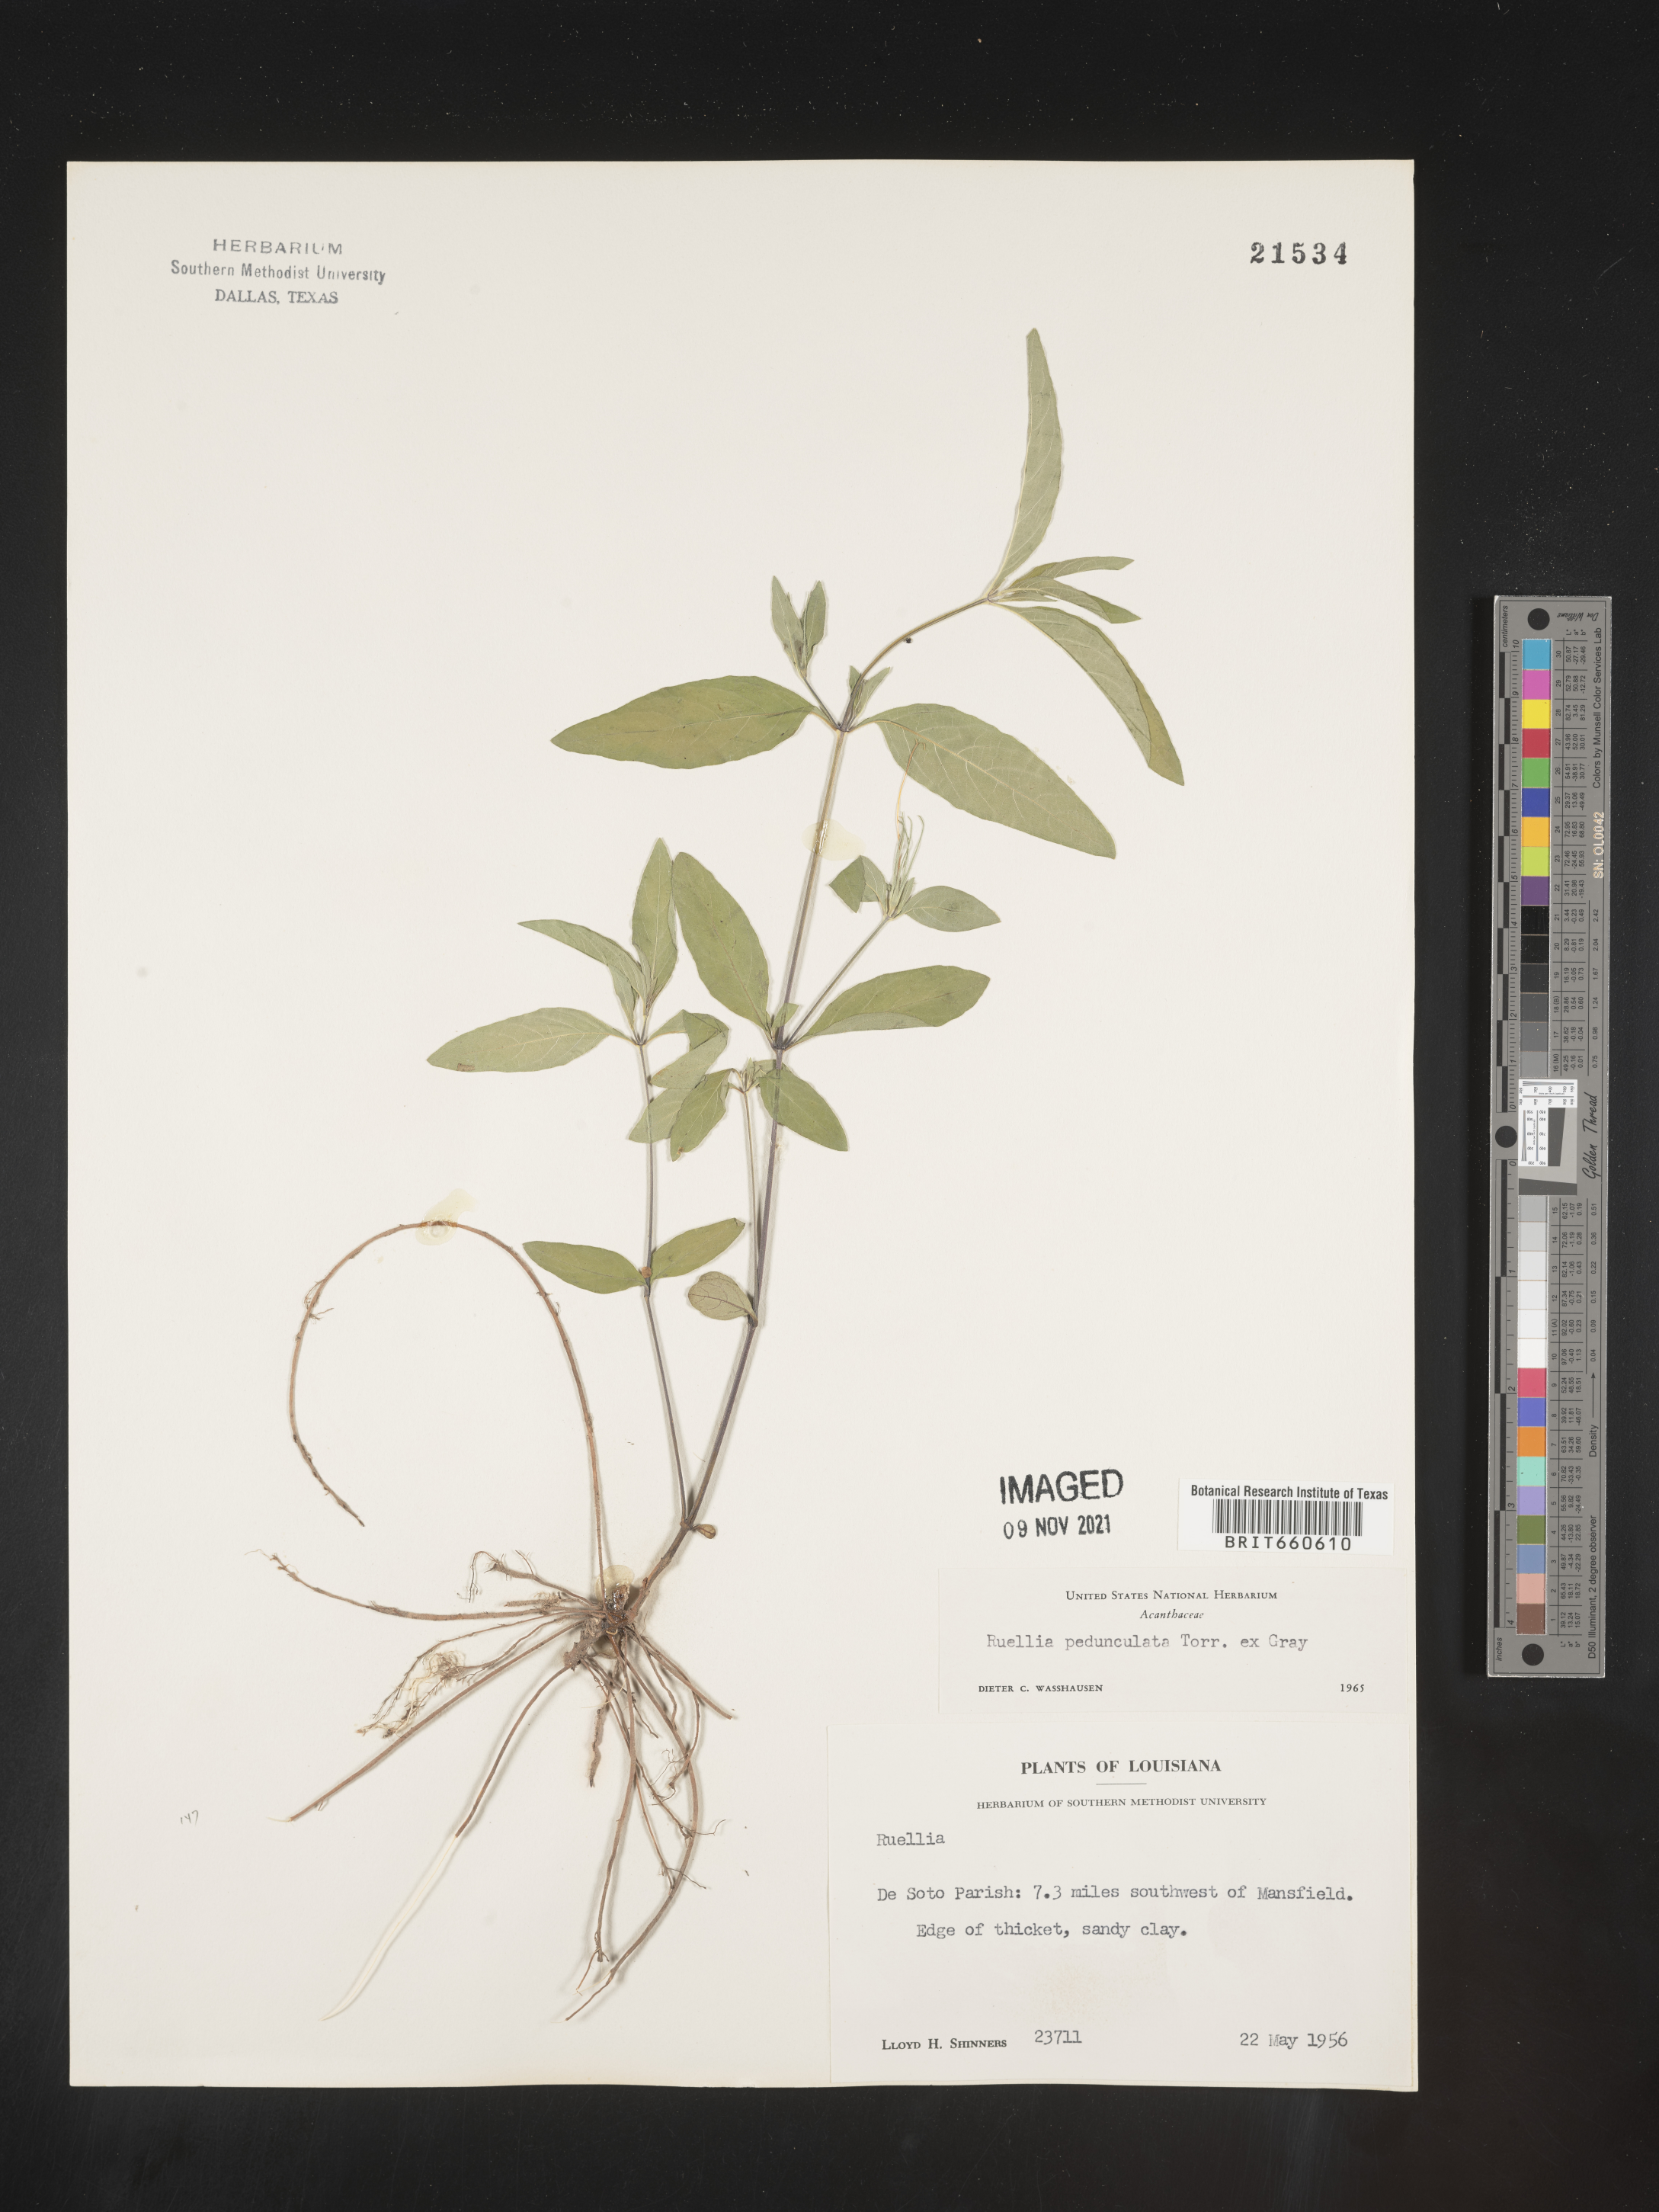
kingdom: Plantae
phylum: Tracheophyta
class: Magnoliopsida
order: Lamiales
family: Acanthaceae
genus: Ruellia
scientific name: Ruellia pedunculata
